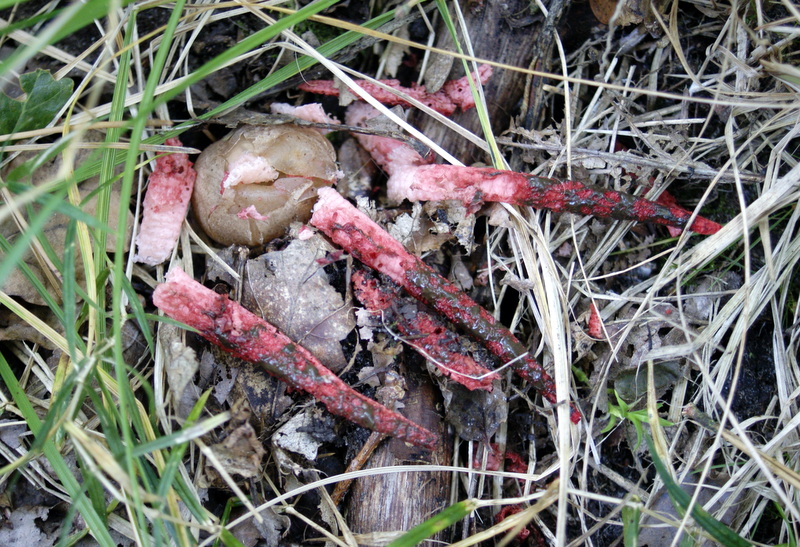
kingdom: Fungi
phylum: Basidiomycota
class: Agaricomycetes
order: Phallales
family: Phallaceae
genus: Clathrus
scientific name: Clathrus archeri
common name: blækspruttesvamp
